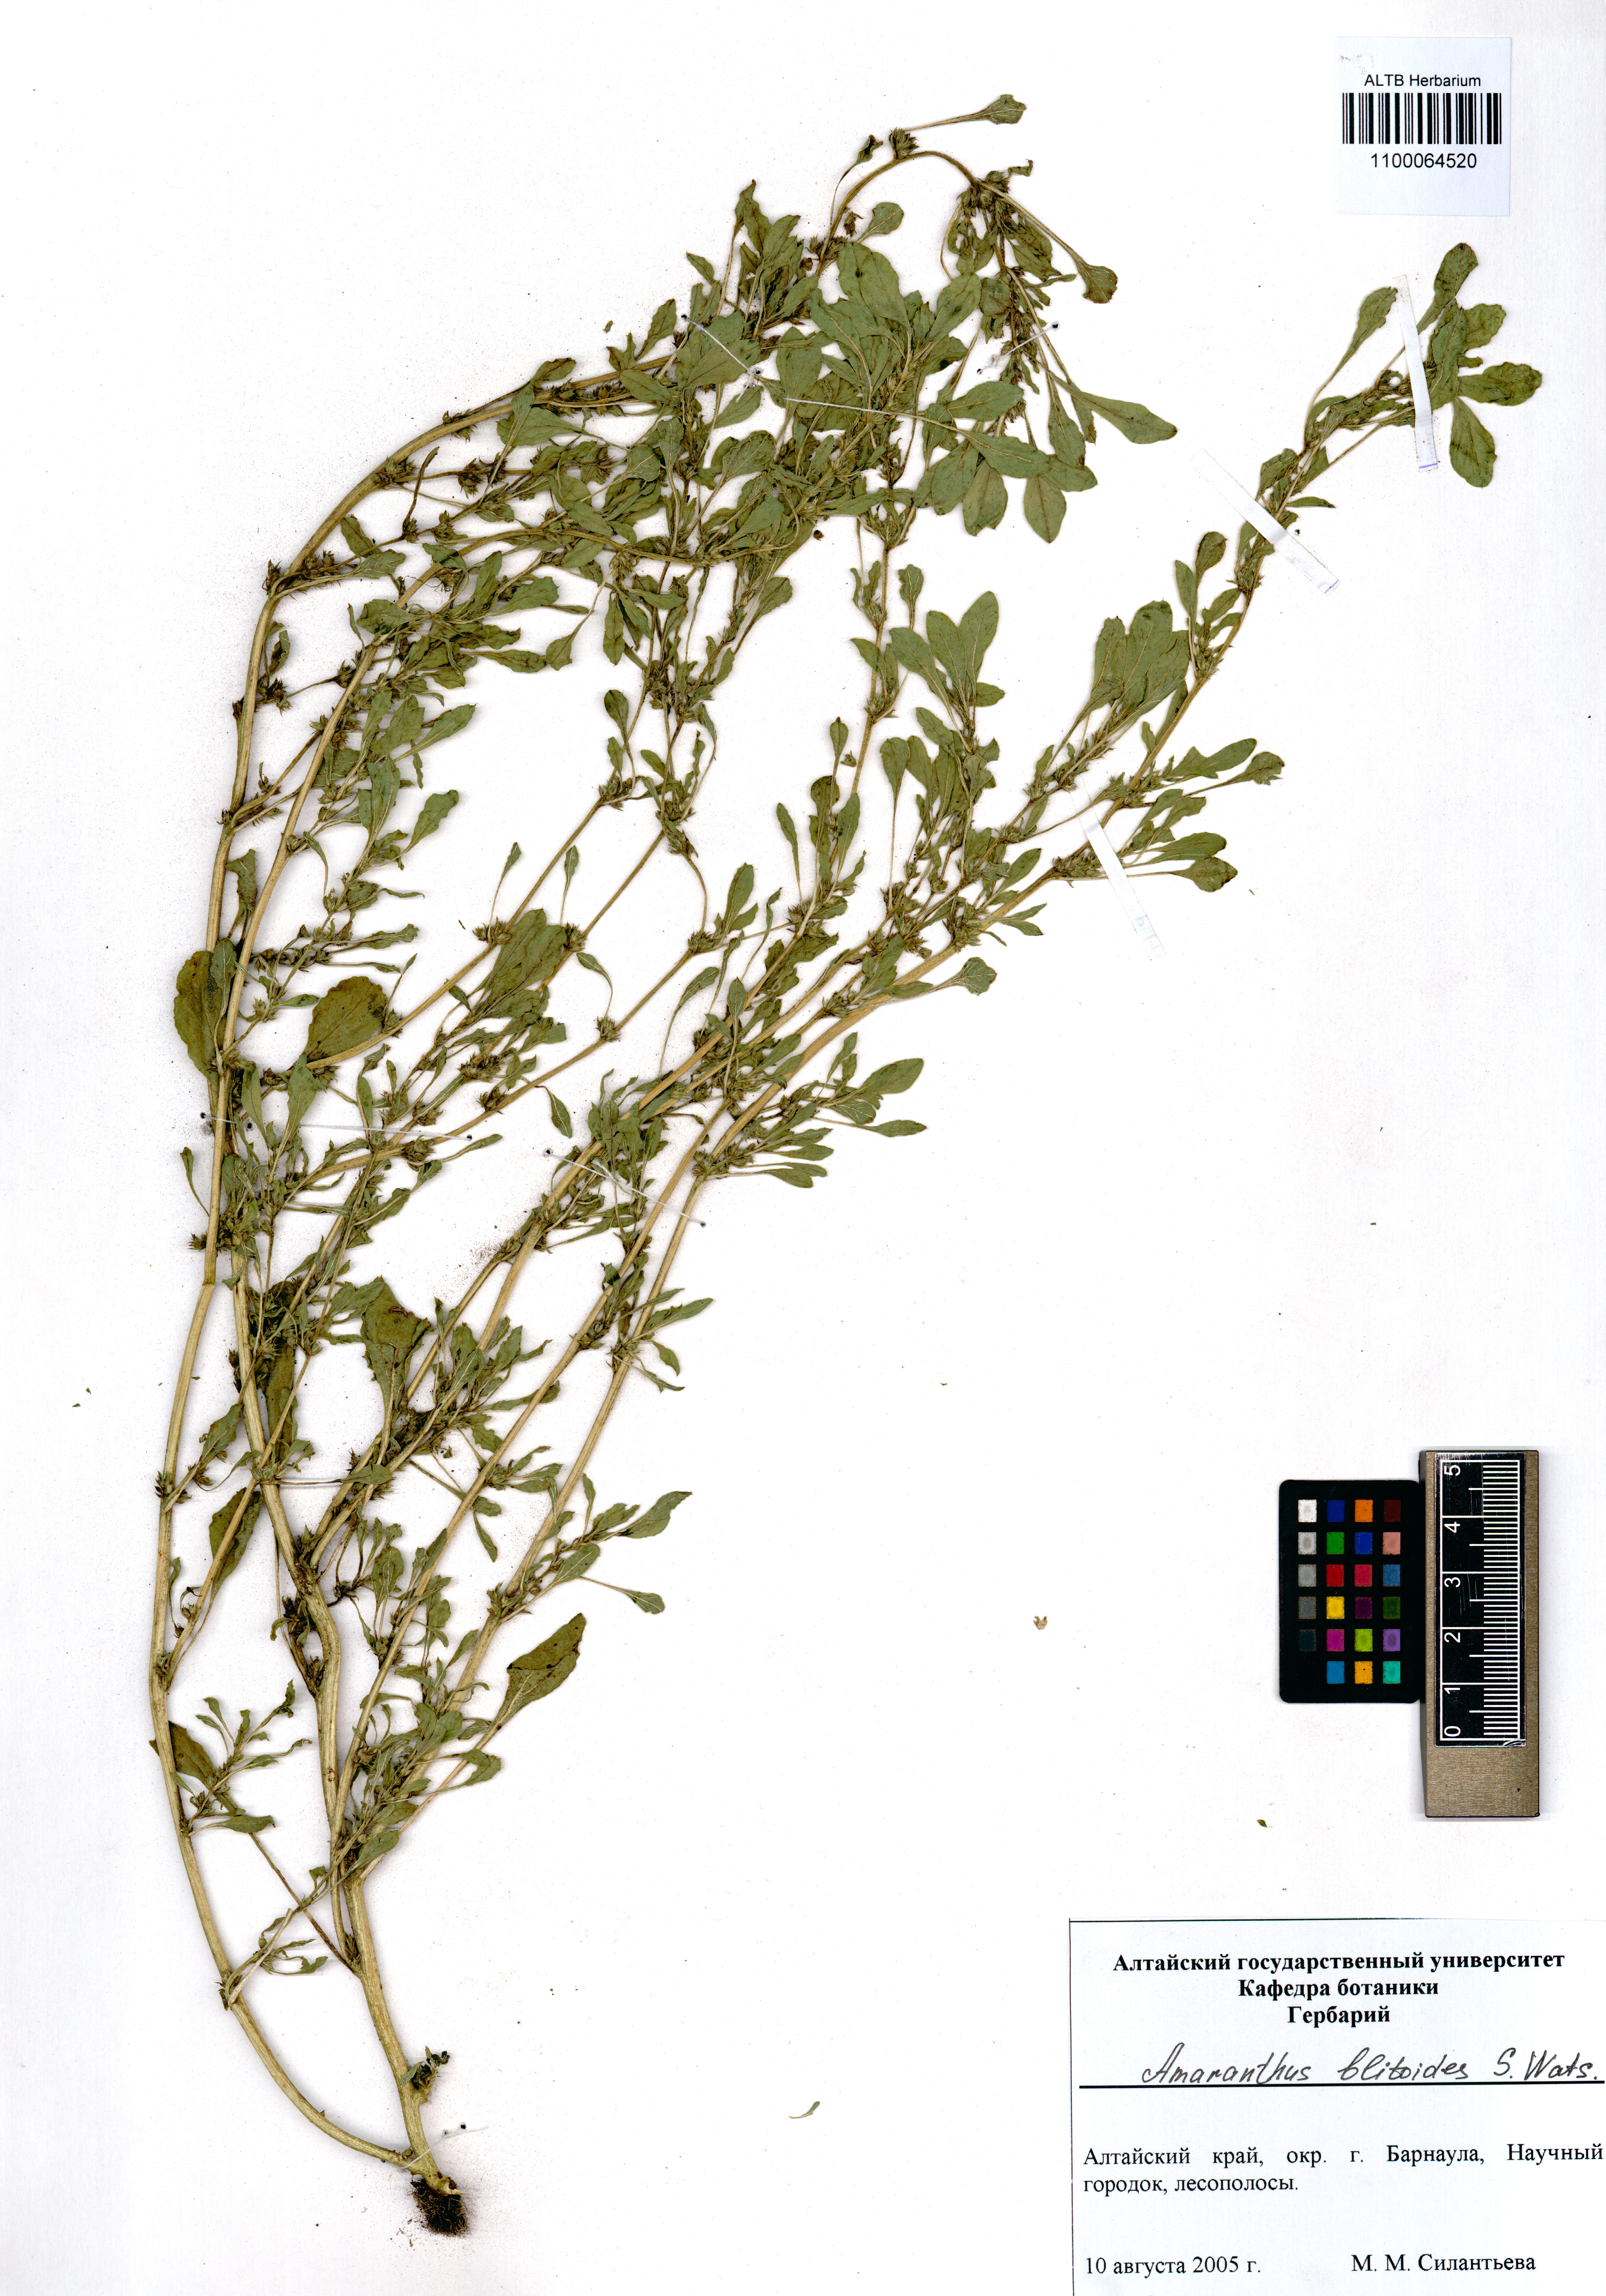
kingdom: Plantae
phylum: Tracheophyta
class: Magnoliopsida
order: Caryophyllales
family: Amaranthaceae
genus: Amaranthus
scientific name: Amaranthus blitoides
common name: Prostrate pigweed
